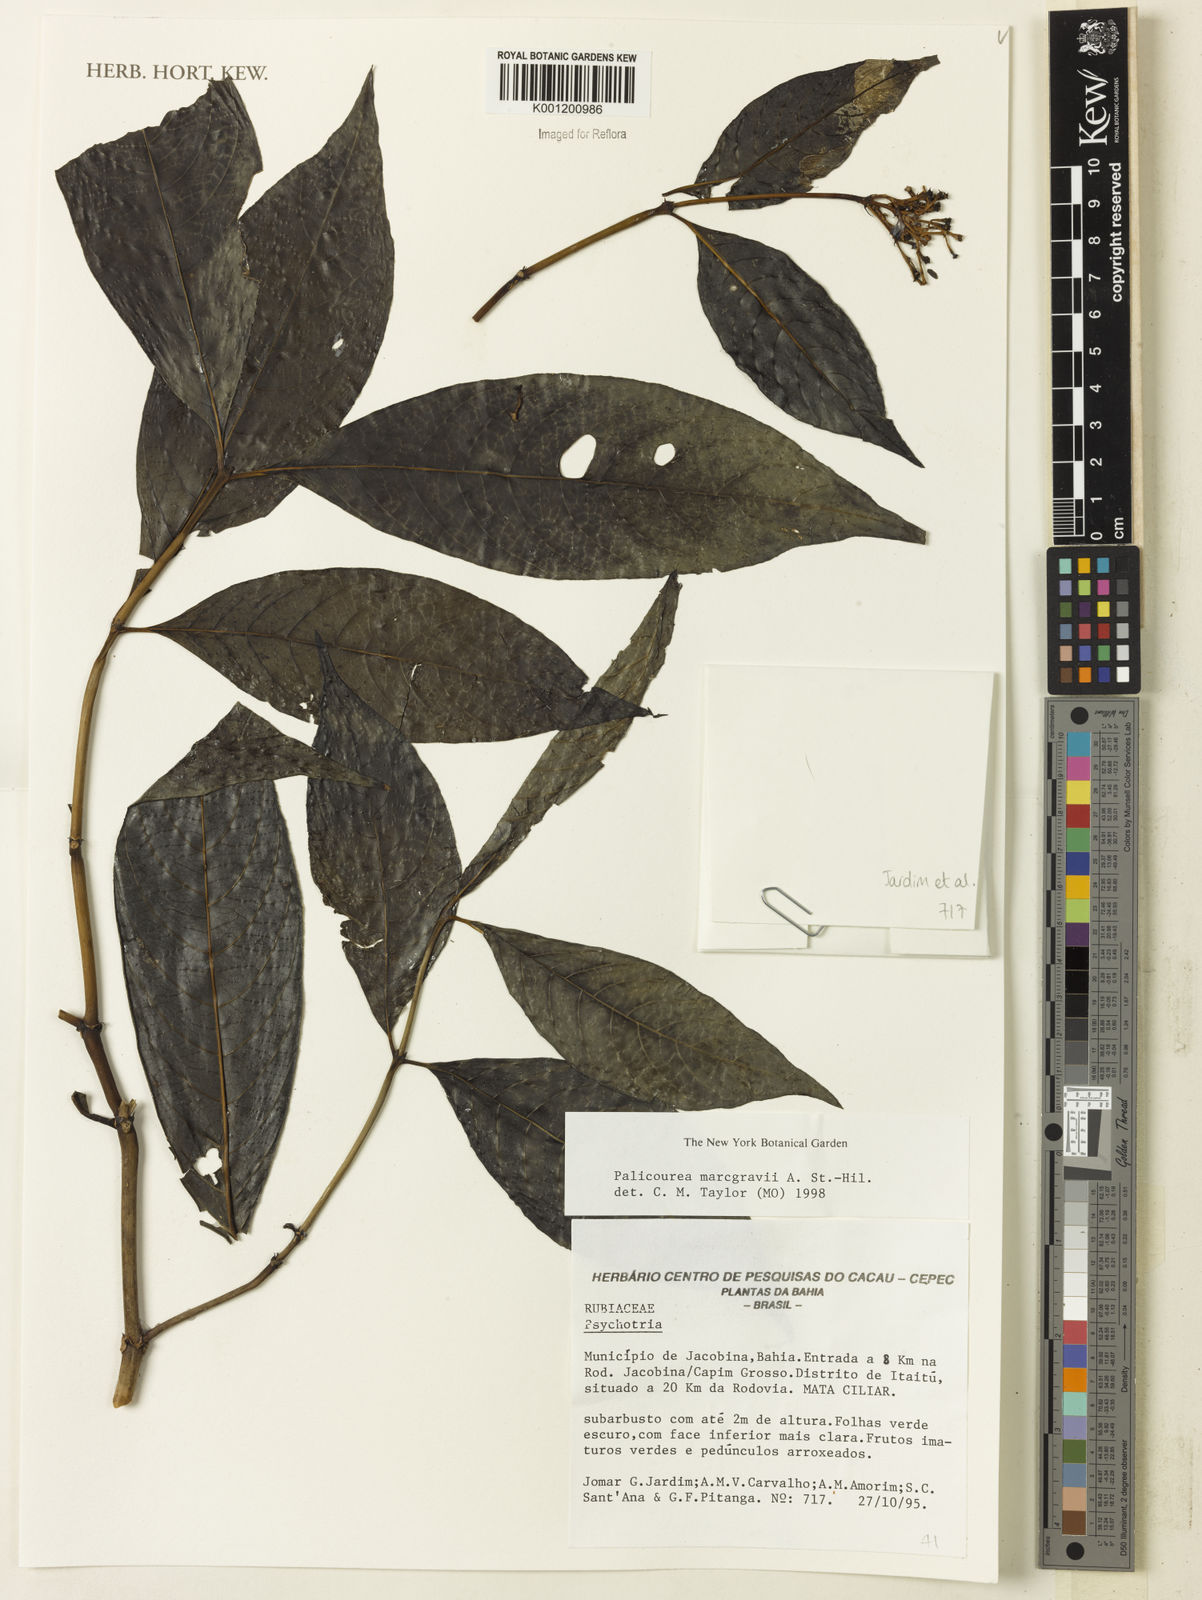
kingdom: Plantae
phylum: Tracheophyta
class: Magnoliopsida
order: Gentianales
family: Rubiaceae
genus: Palicourea
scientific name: Palicourea marcgravii
